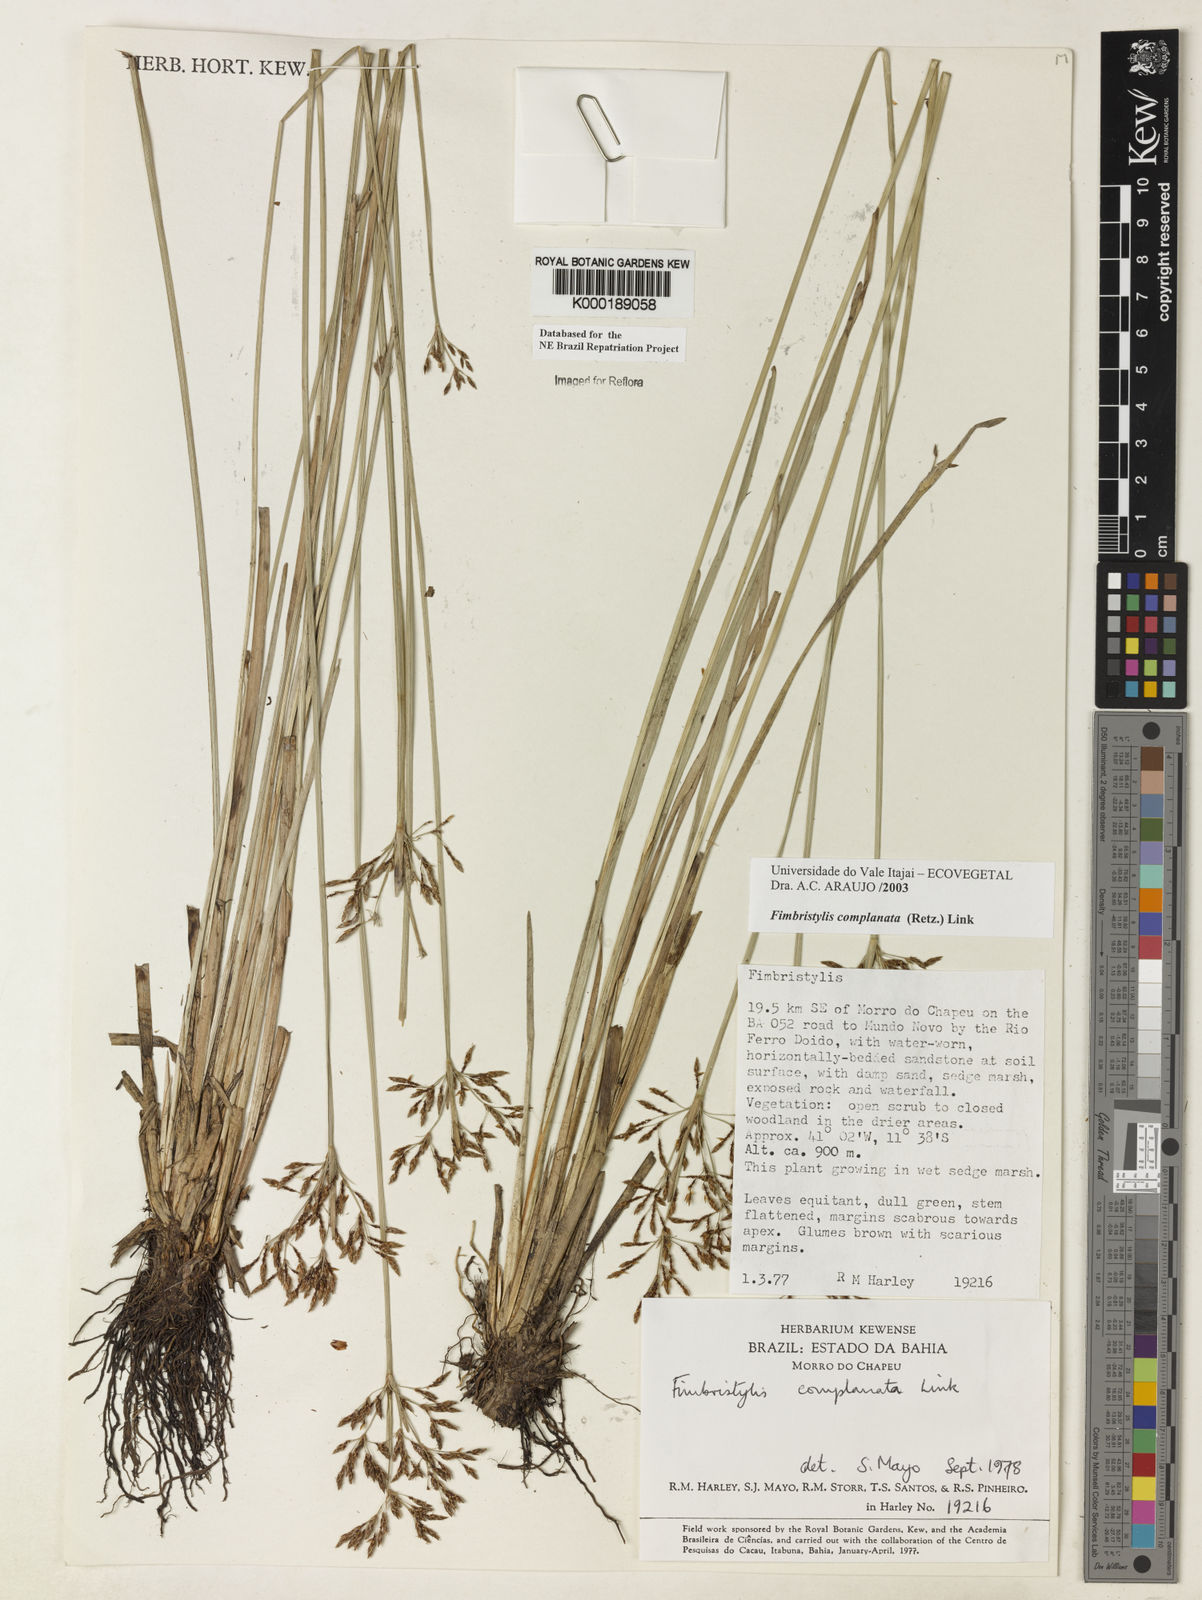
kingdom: Plantae
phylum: Tracheophyta
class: Liliopsida
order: Poales
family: Cyperaceae
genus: Fimbristylis
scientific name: Fimbristylis complanata
